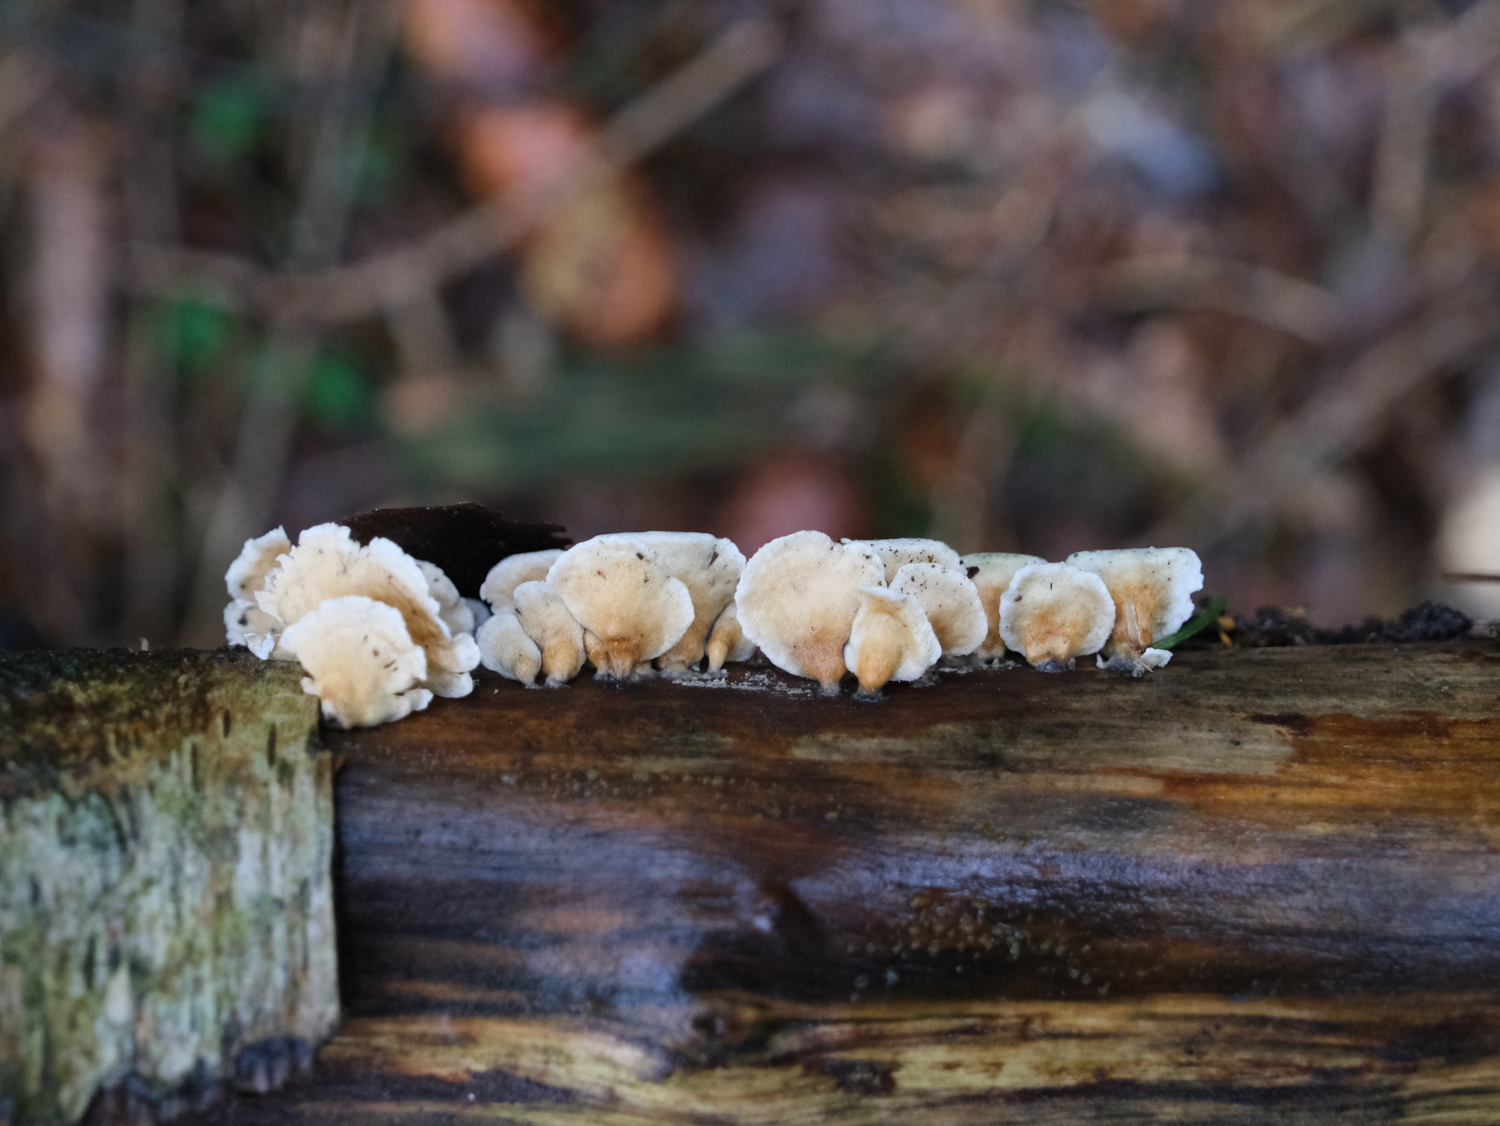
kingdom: Fungi
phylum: Basidiomycota
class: Agaricomycetes
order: Amylocorticiales
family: Amylocorticiaceae
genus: Plicaturopsis
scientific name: Plicaturopsis crispa
